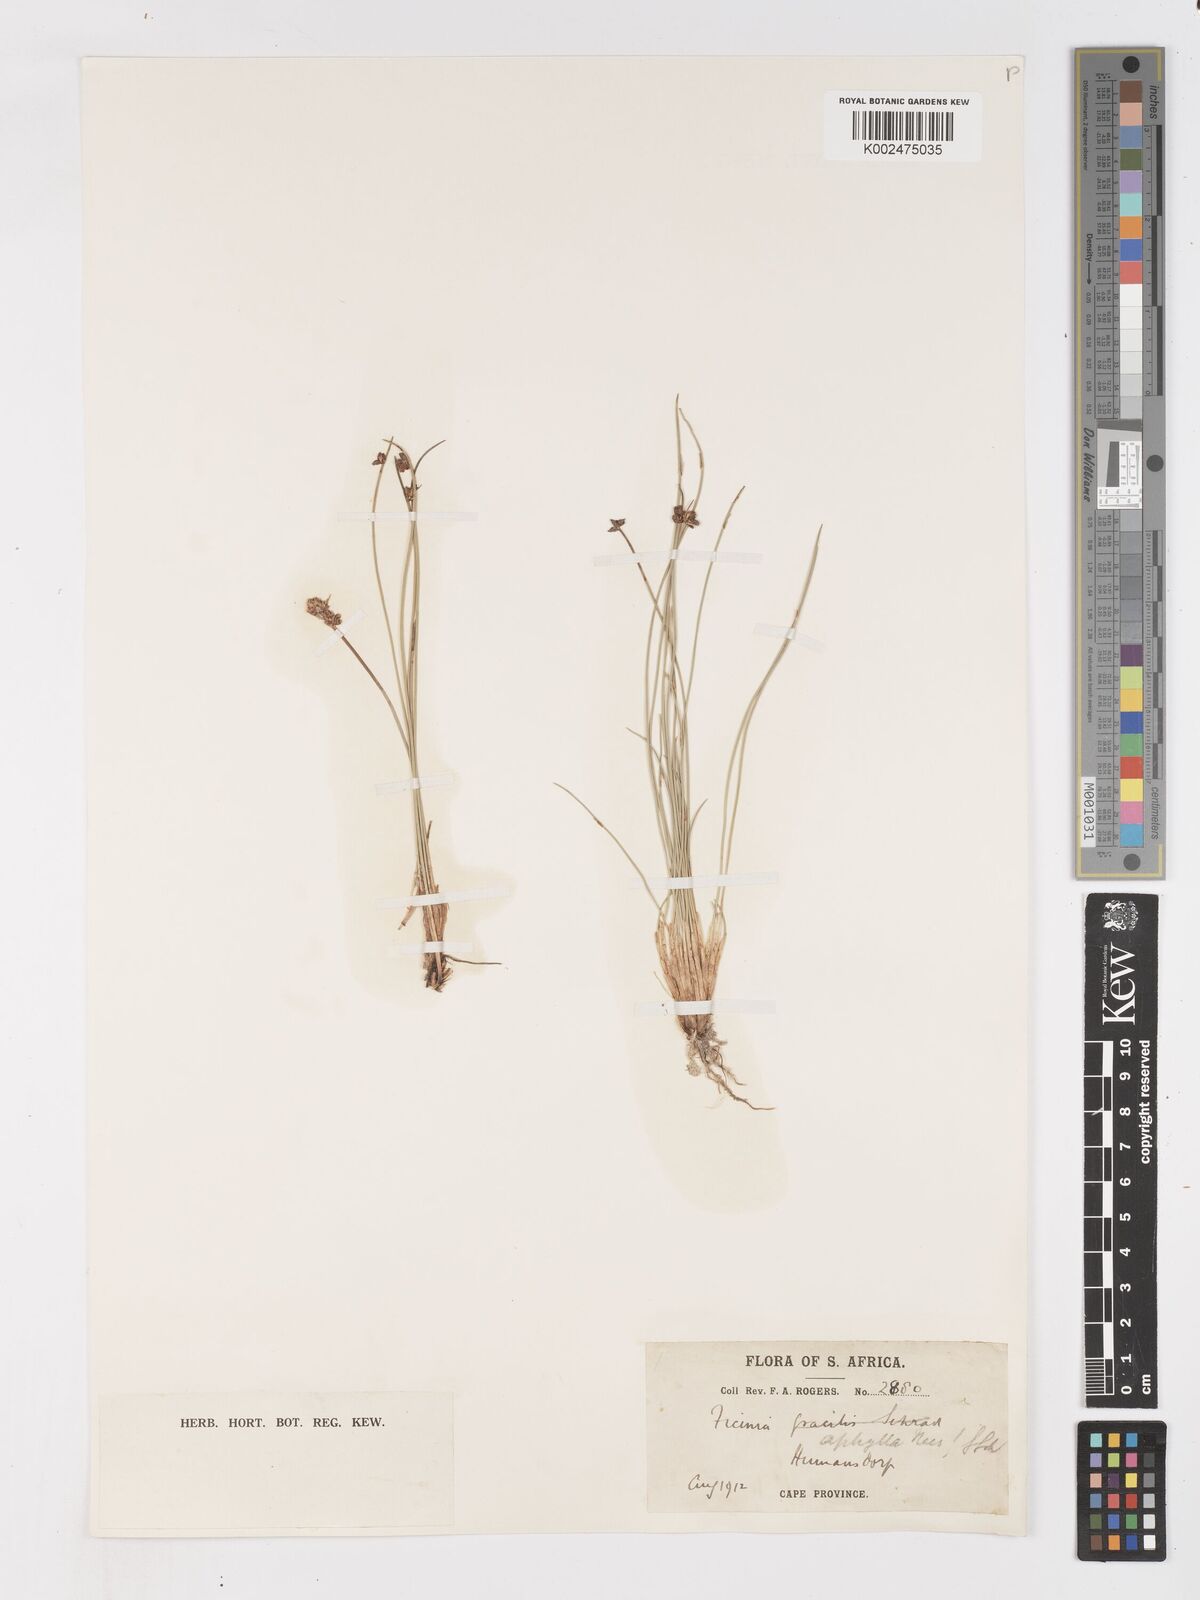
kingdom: Plantae
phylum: Tracheophyta
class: Liliopsida
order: Poales
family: Cyperaceae
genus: Ficinia
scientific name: Ficinia lateralis
